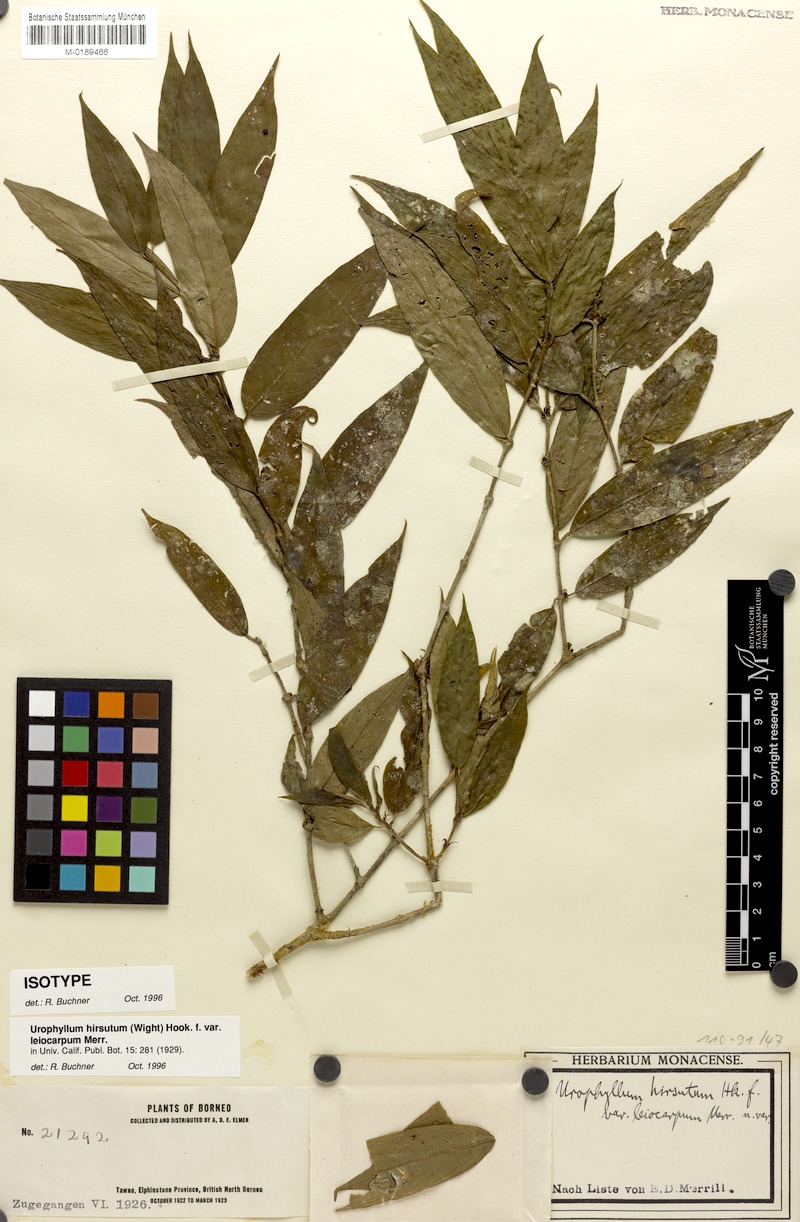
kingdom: Plantae
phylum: Tracheophyta
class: Magnoliopsida
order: Gentianales
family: Rubiaceae
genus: Urophyllum
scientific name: Urophyllum hirsutum
